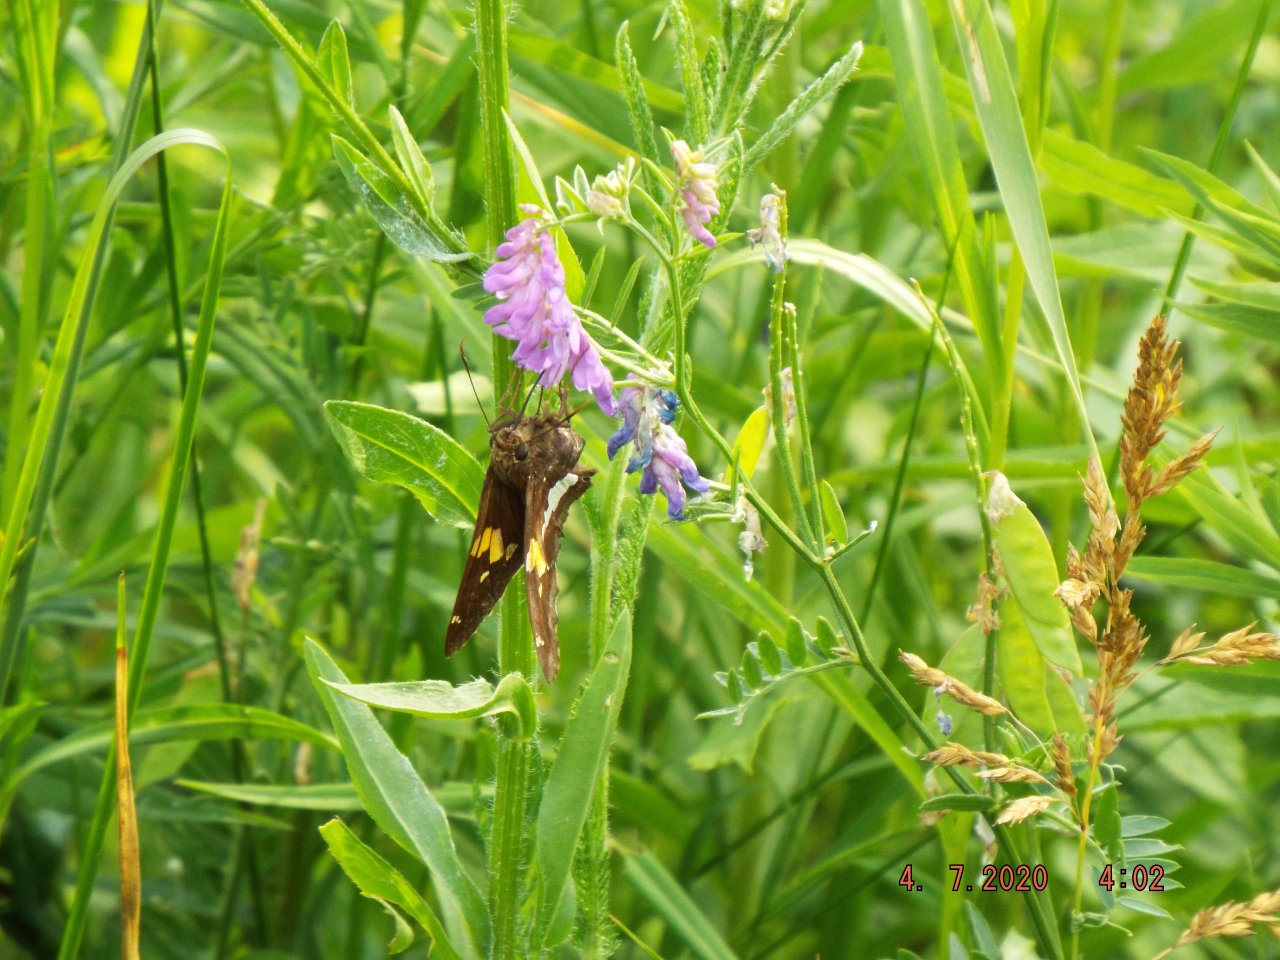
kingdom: Animalia
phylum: Arthropoda
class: Insecta
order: Lepidoptera
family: Hesperiidae
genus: Epargyreus
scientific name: Epargyreus clarus
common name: Silver-spotted Skipper
